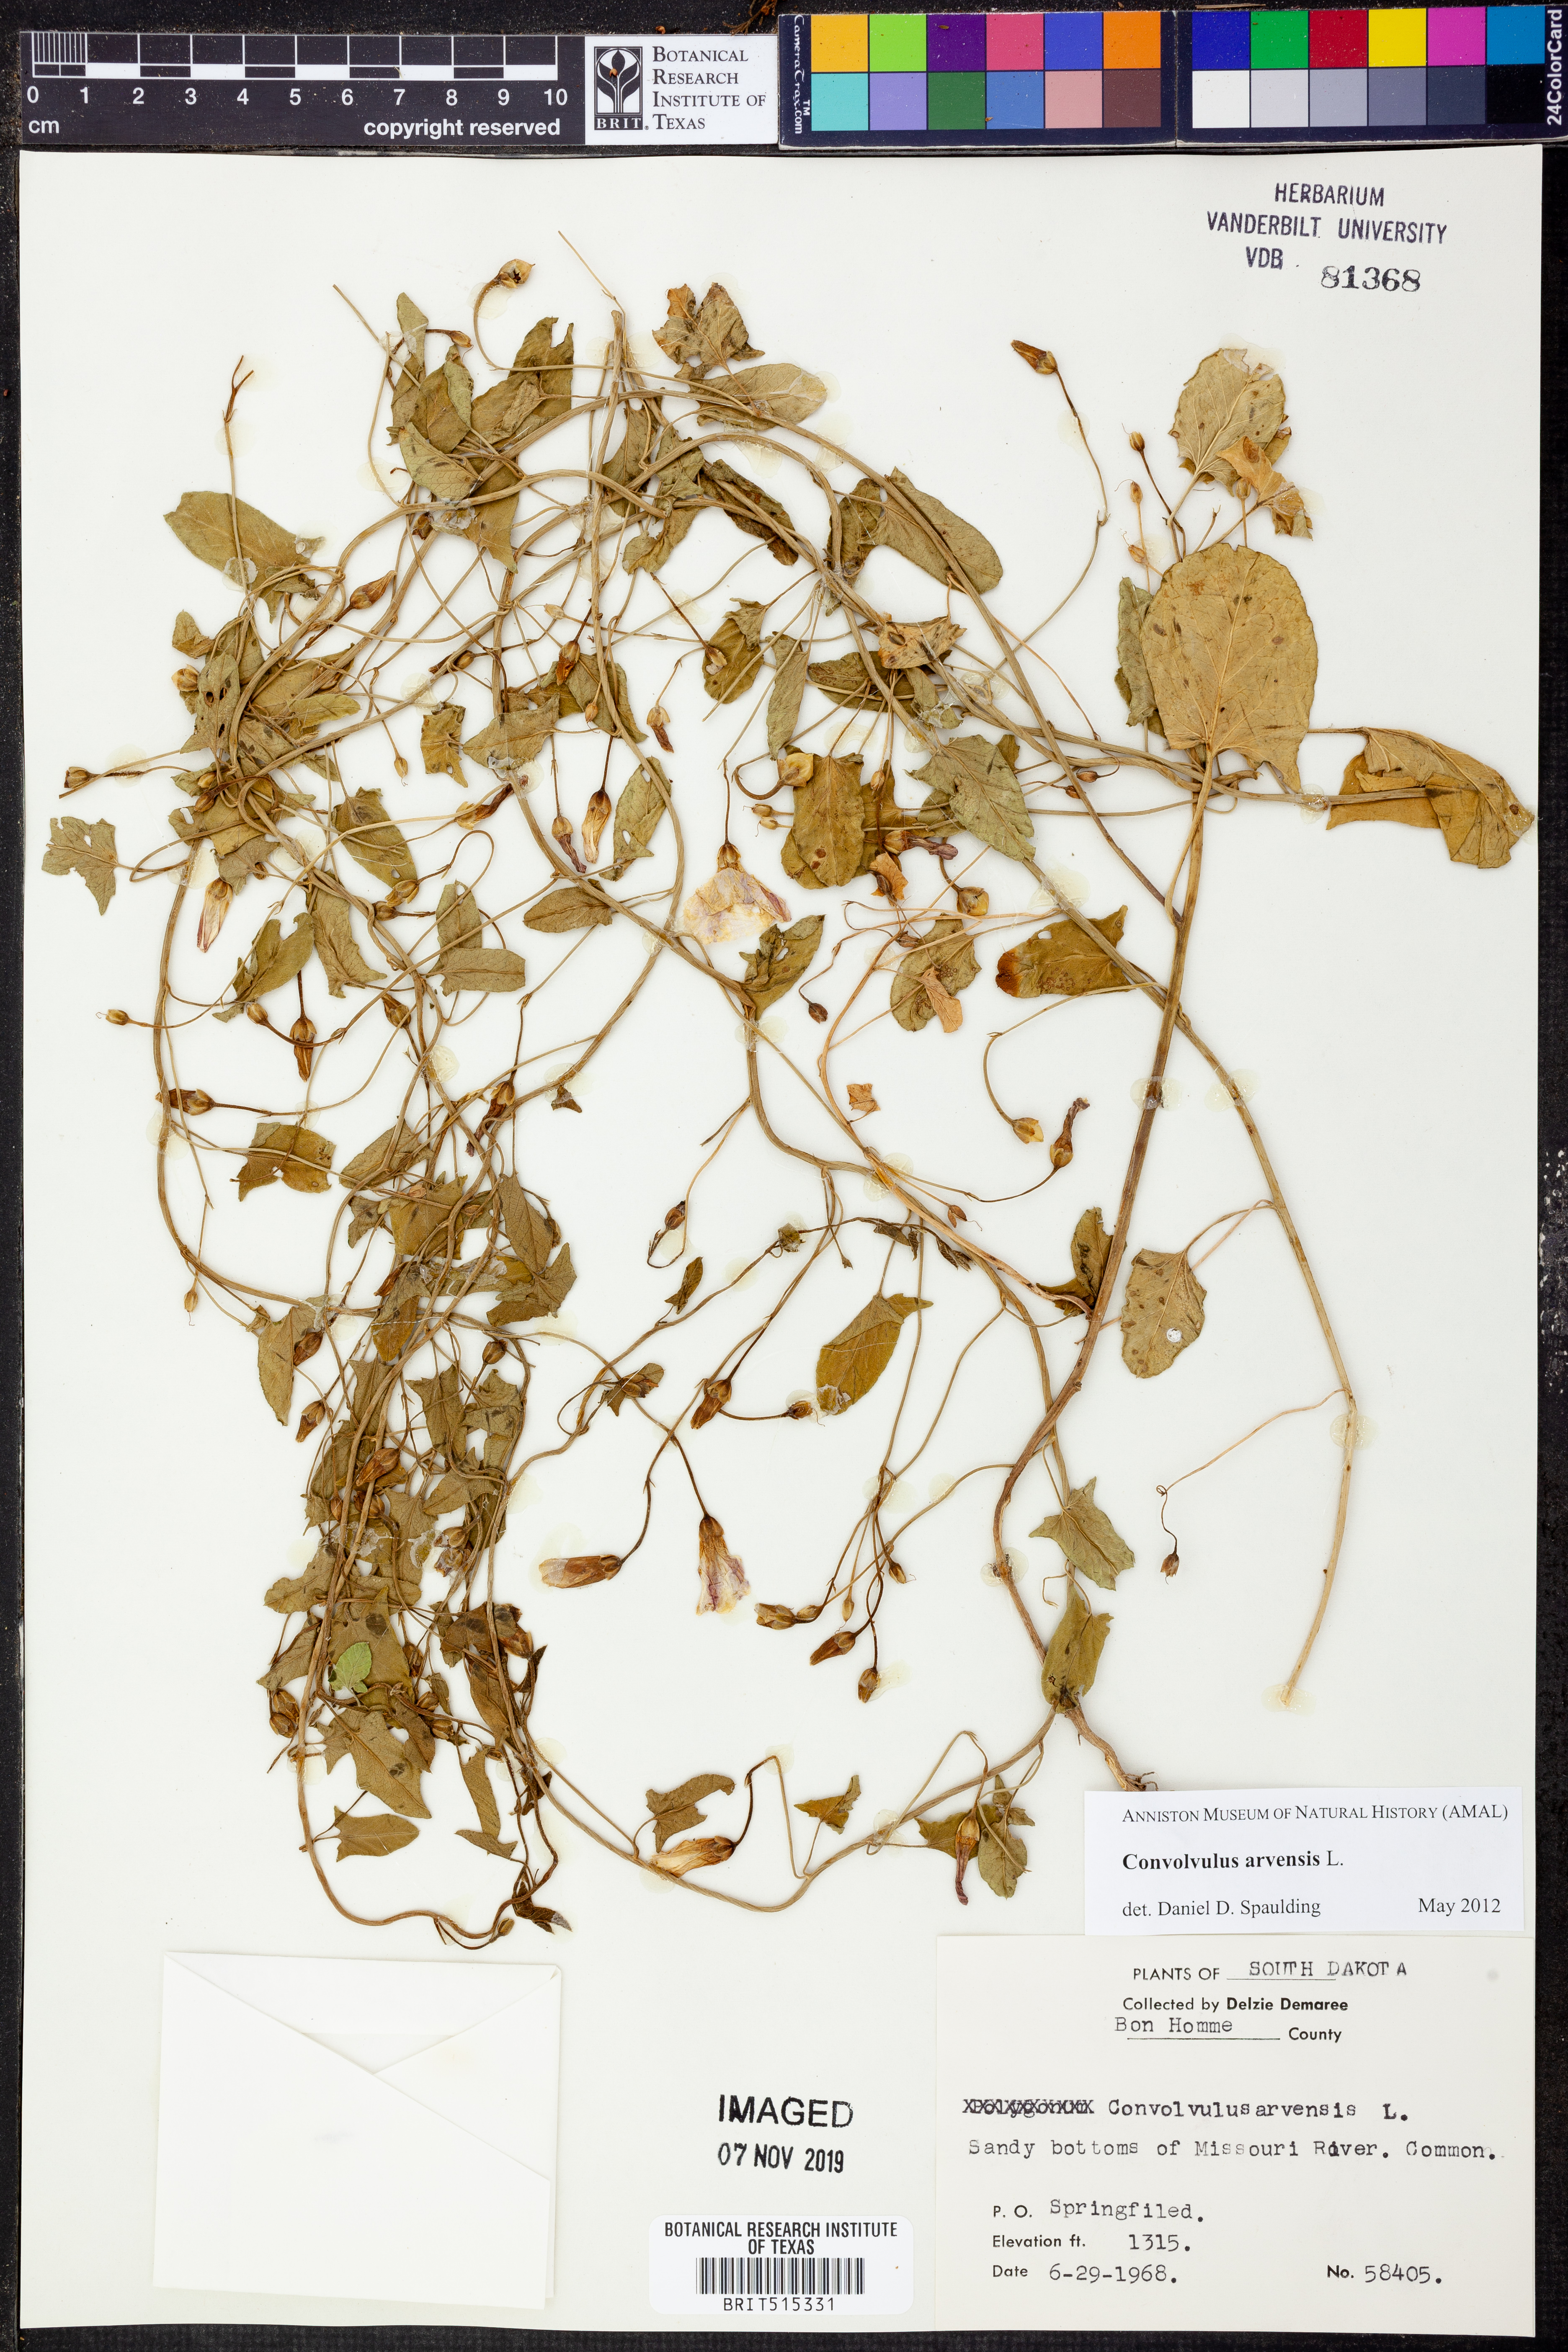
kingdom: Plantae
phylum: Tracheophyta
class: Magnoliopsida
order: Solanales
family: Convolvulaceae
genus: Convolvulus
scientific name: Convolvulus arvensis
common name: Field bindweed
